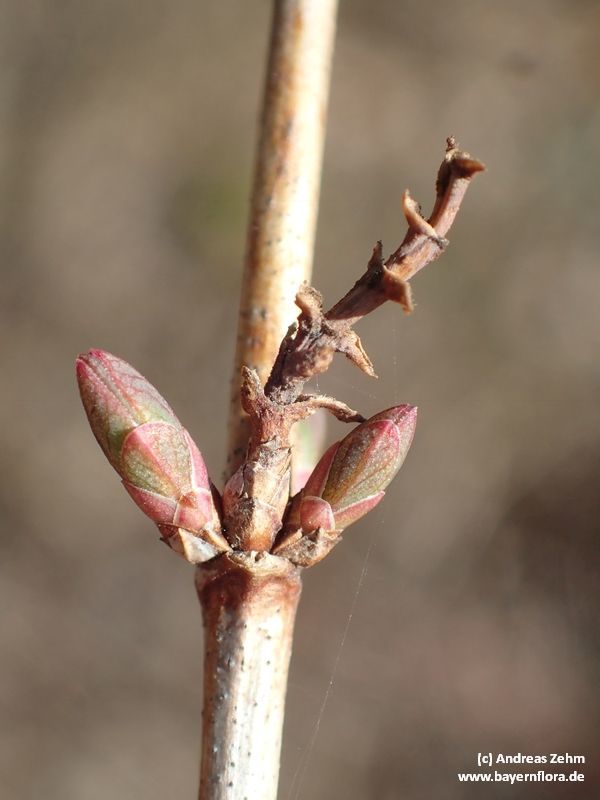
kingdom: Plantae
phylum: Tracheophyta
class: Magnoliopsida
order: Dipsacales
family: Caprifoliaceae
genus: Symphoricarpos
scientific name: Symphoricarpos albus
